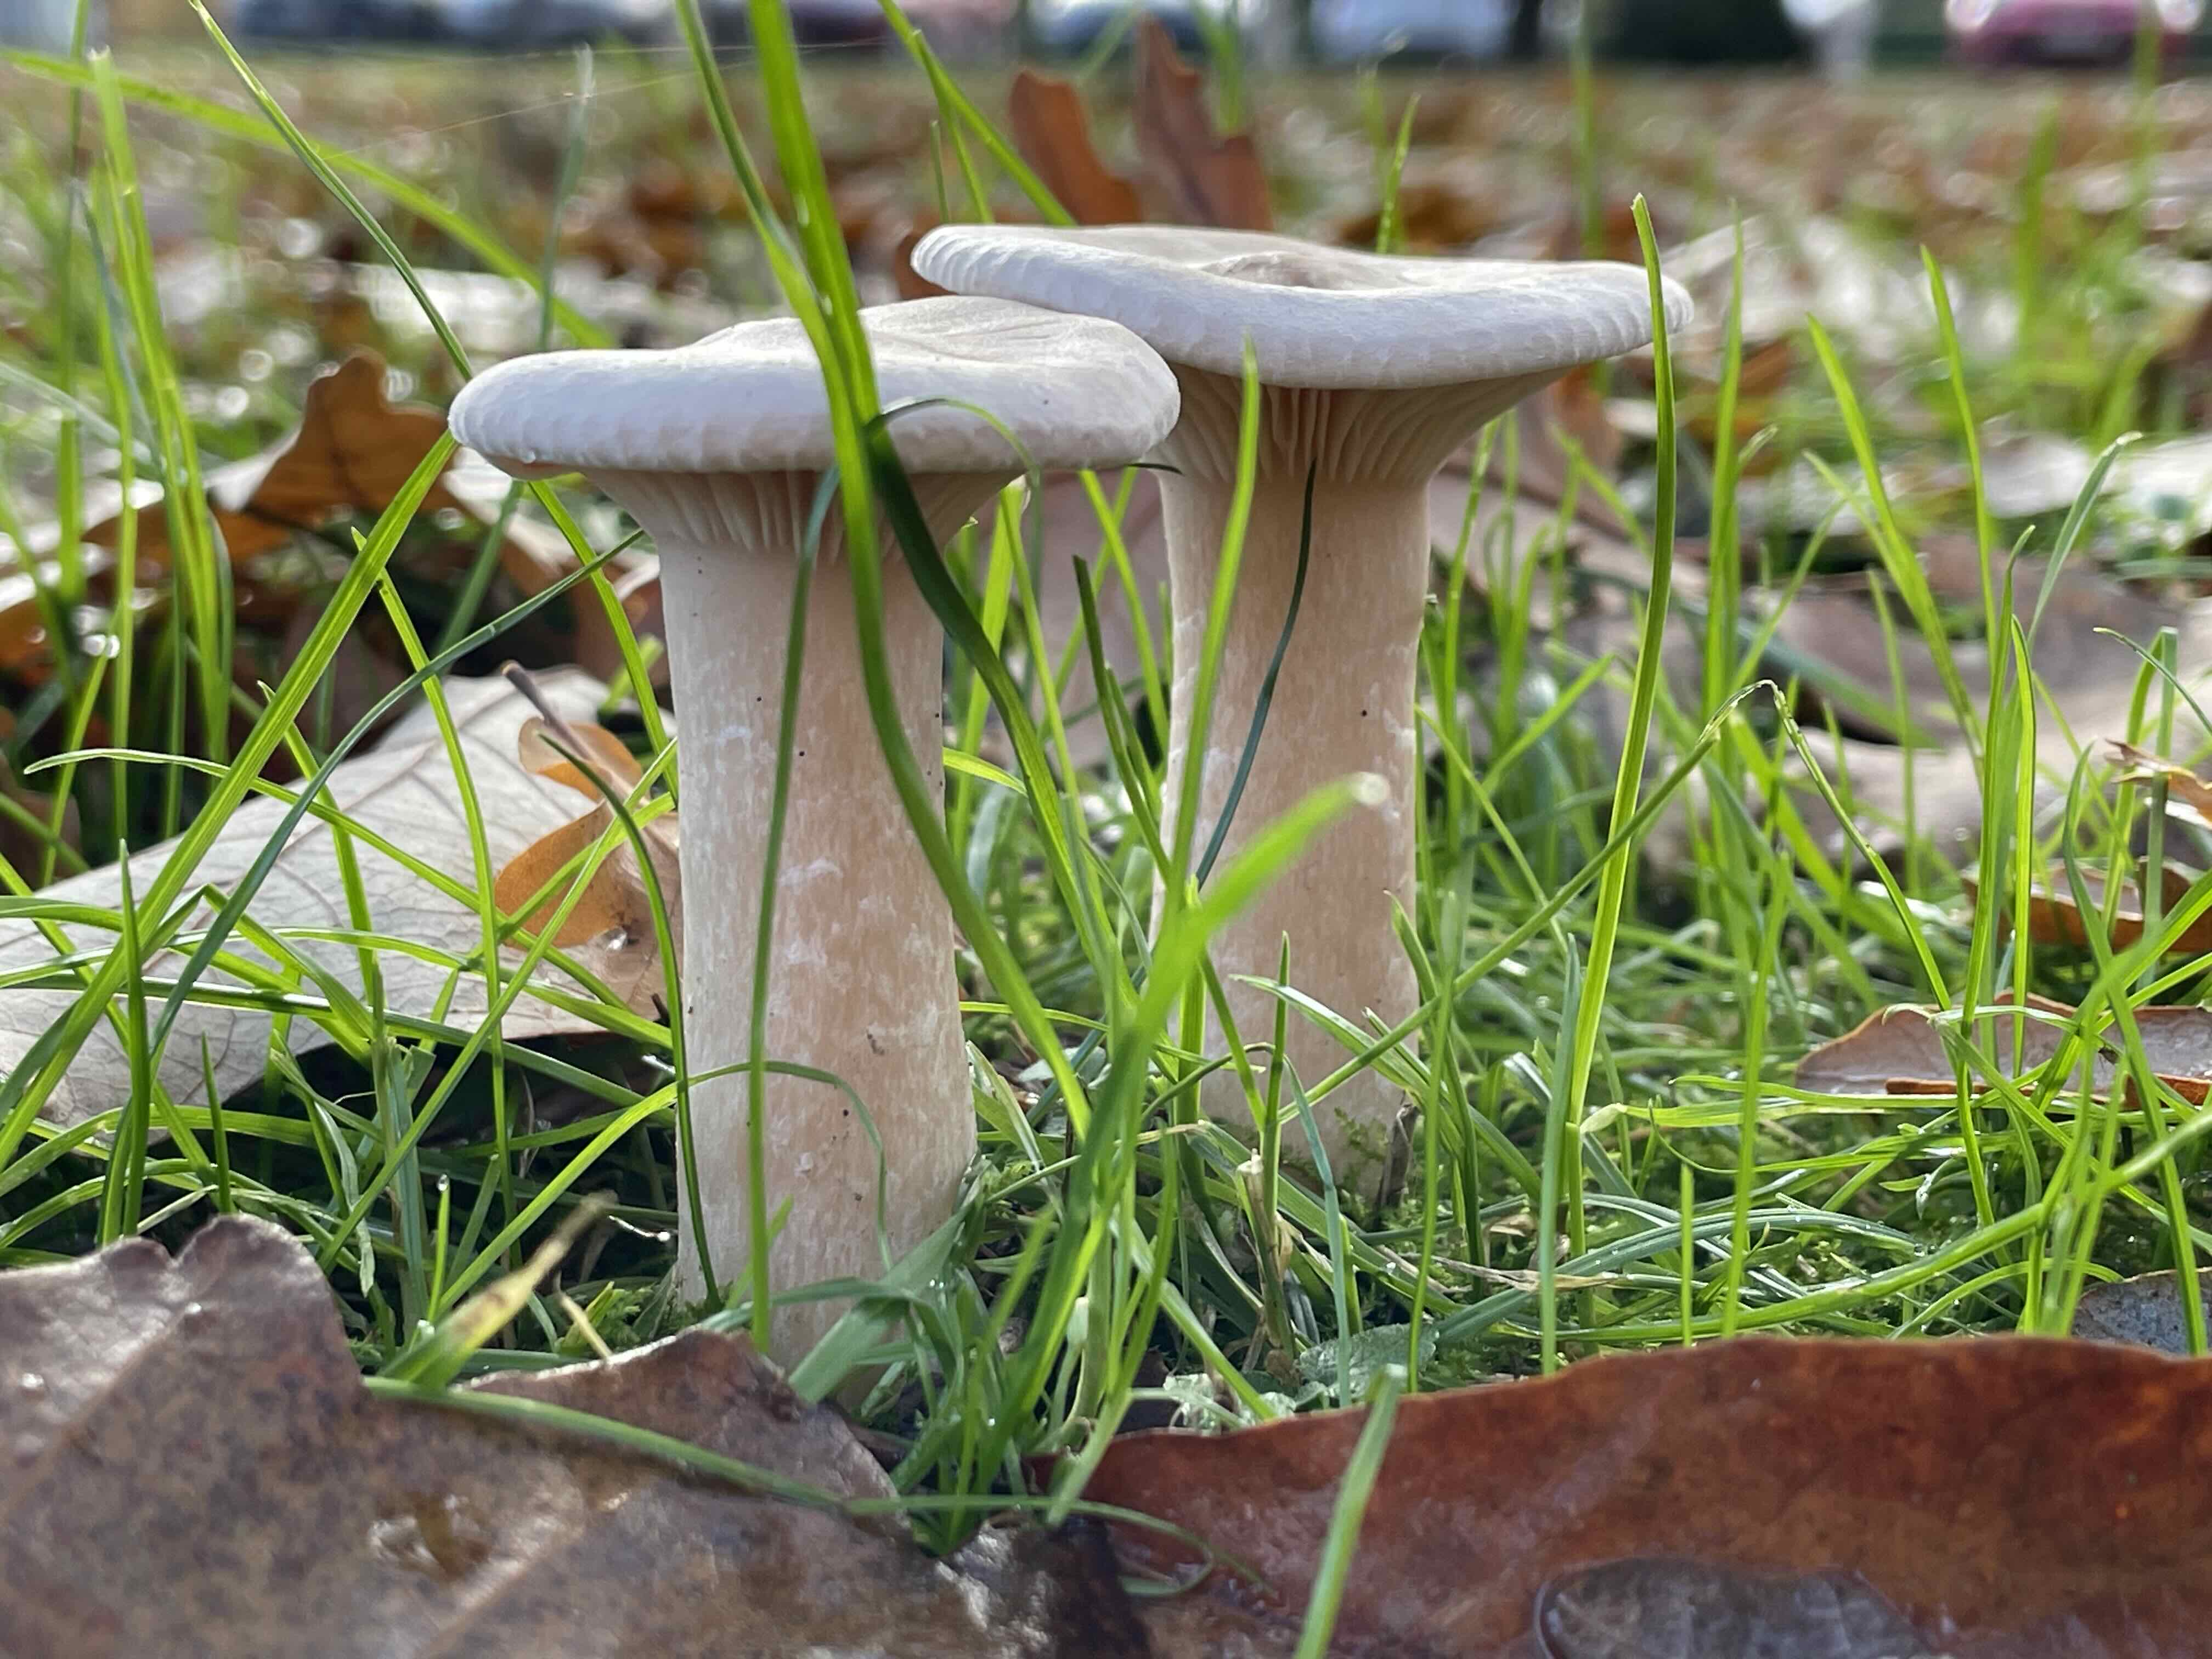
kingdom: Fungi
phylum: Basidiomycota
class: Agaricomycetes
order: Agaricales
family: Tricholomataceae
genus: Infundibulicybe
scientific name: Infundibulicybe geotropa
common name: stor tragthat
